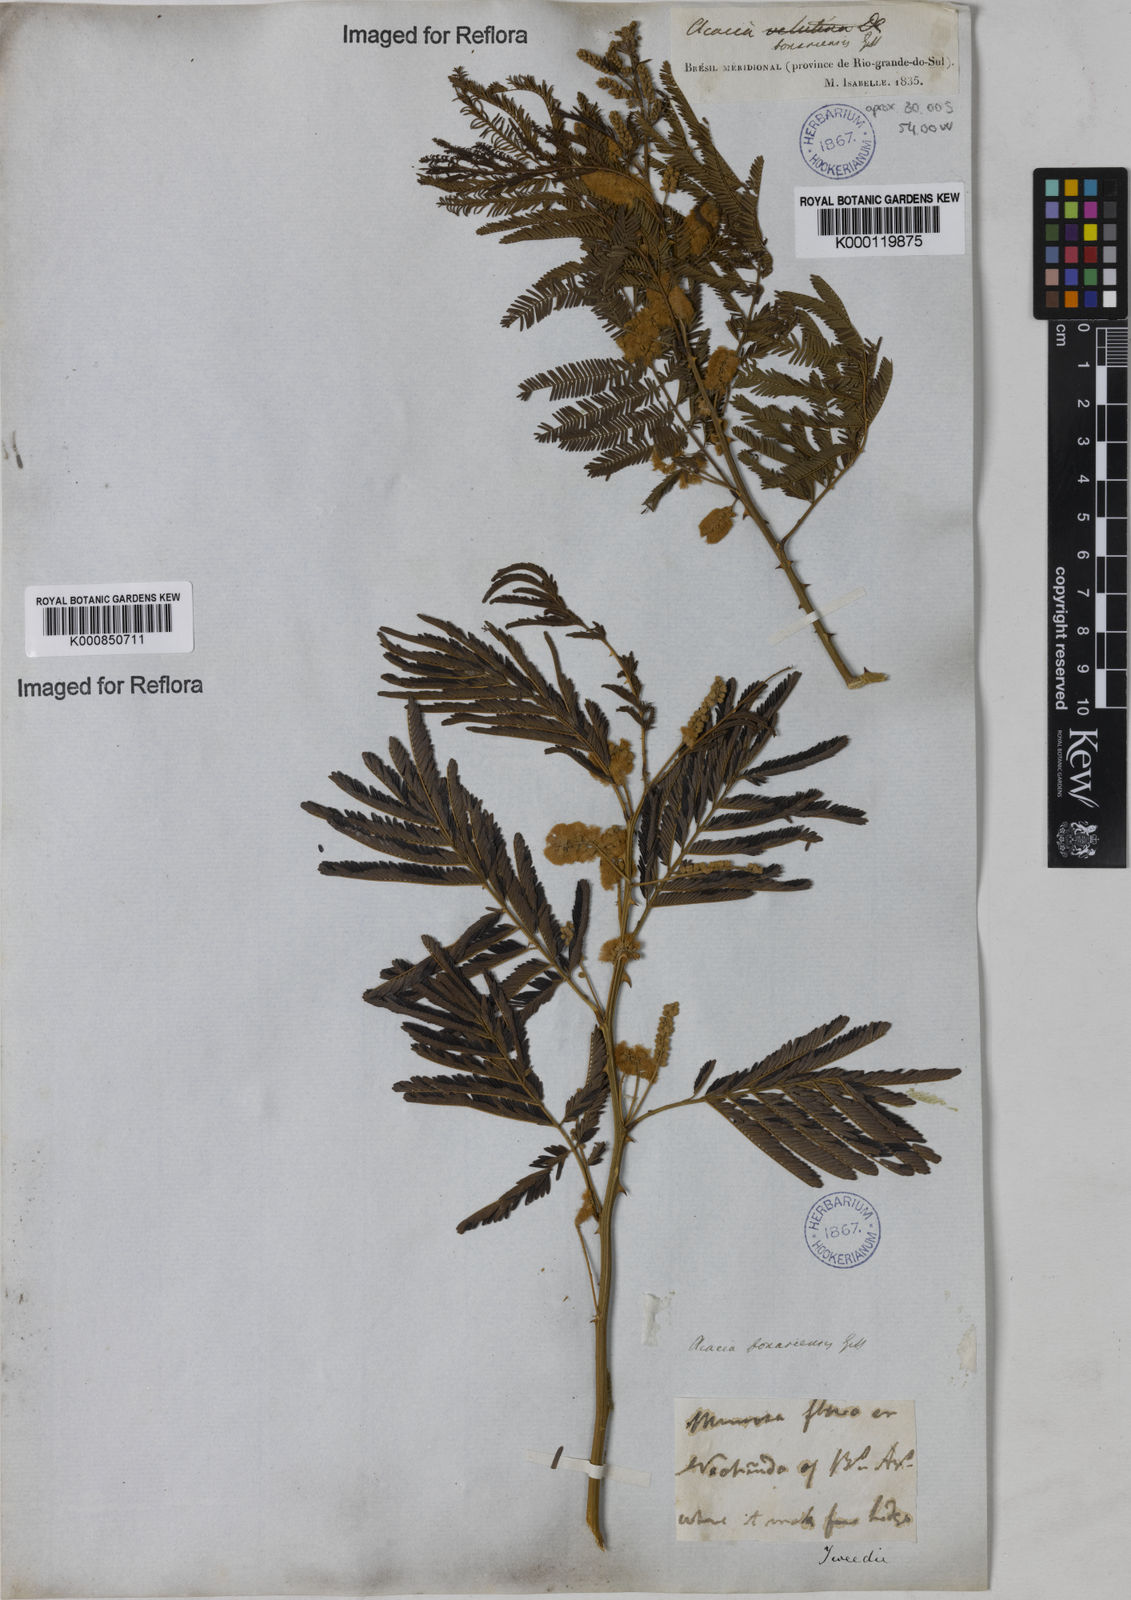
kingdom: Plantae
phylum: Tracheophyta
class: Magnoliopsida
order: Fabales
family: Fabaceae
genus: Senegalia
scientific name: Senegalia bonariensis
